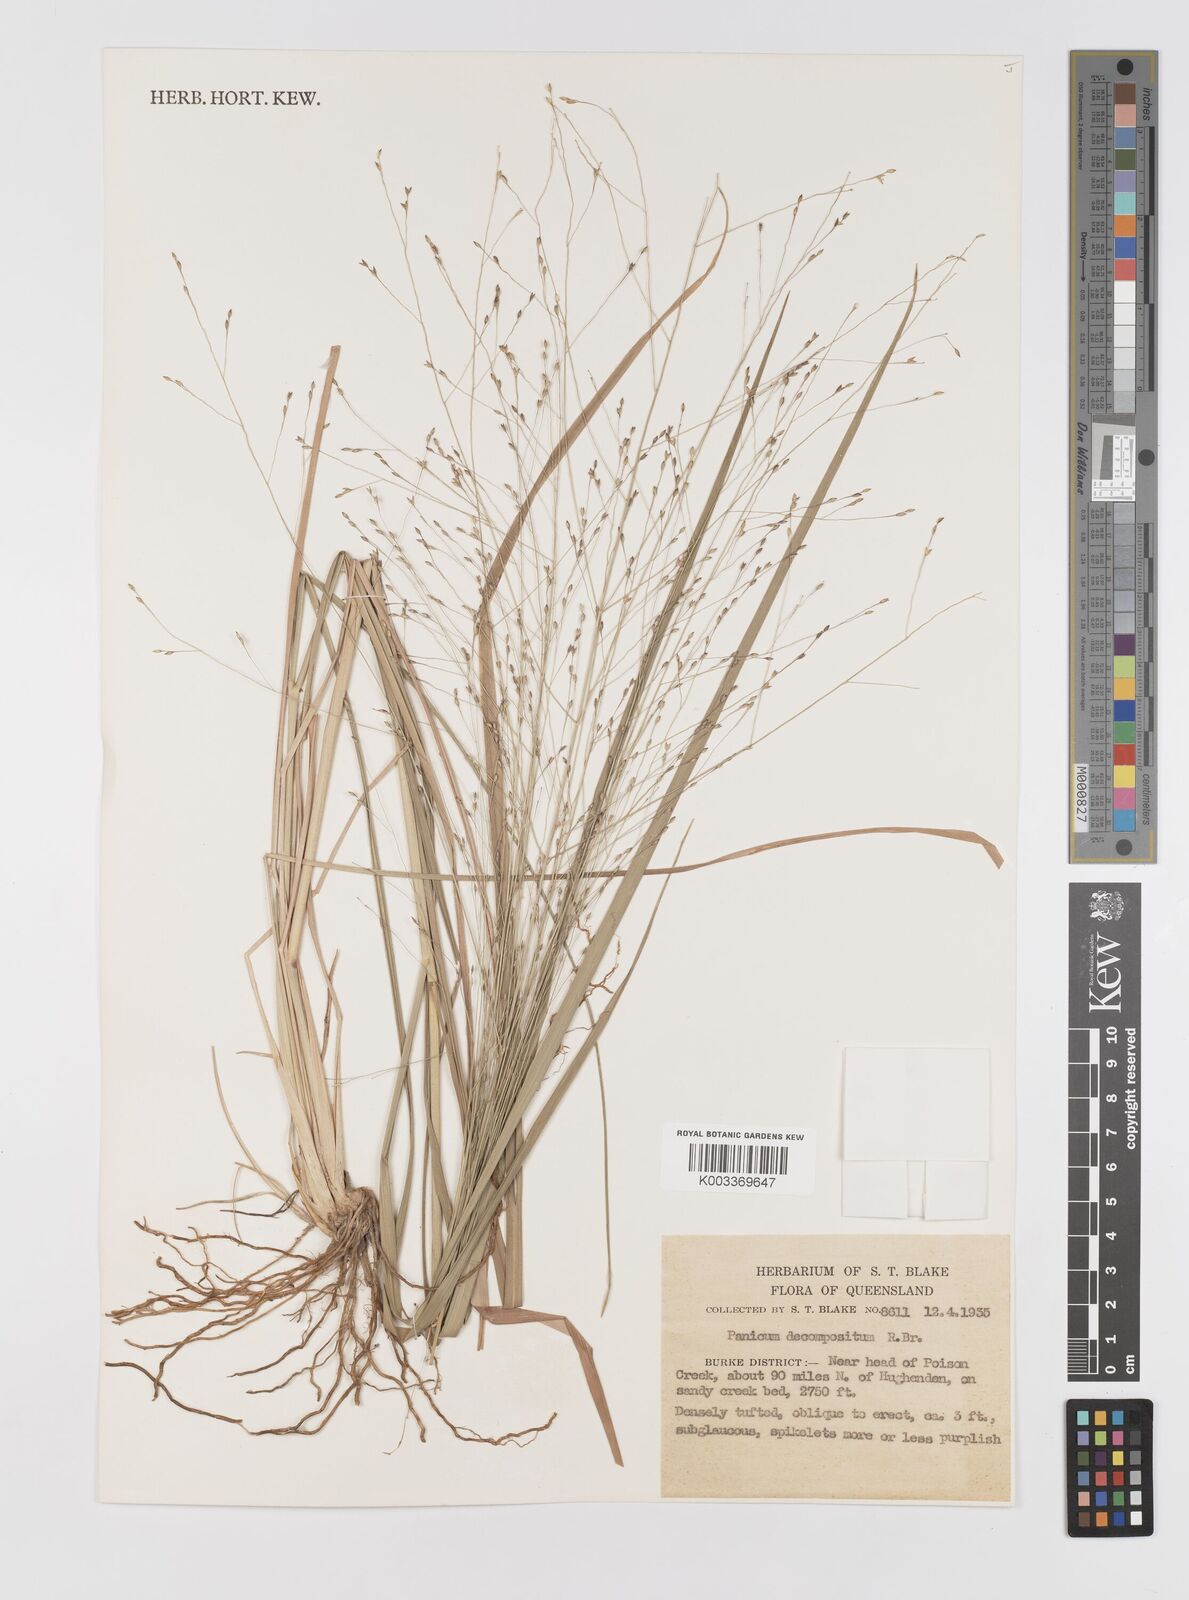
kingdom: Plantae
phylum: Tracheophyta
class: Liliopsida
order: Poales
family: Poaceae
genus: Panicum
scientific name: Panicum decompositum
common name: Australian millet
